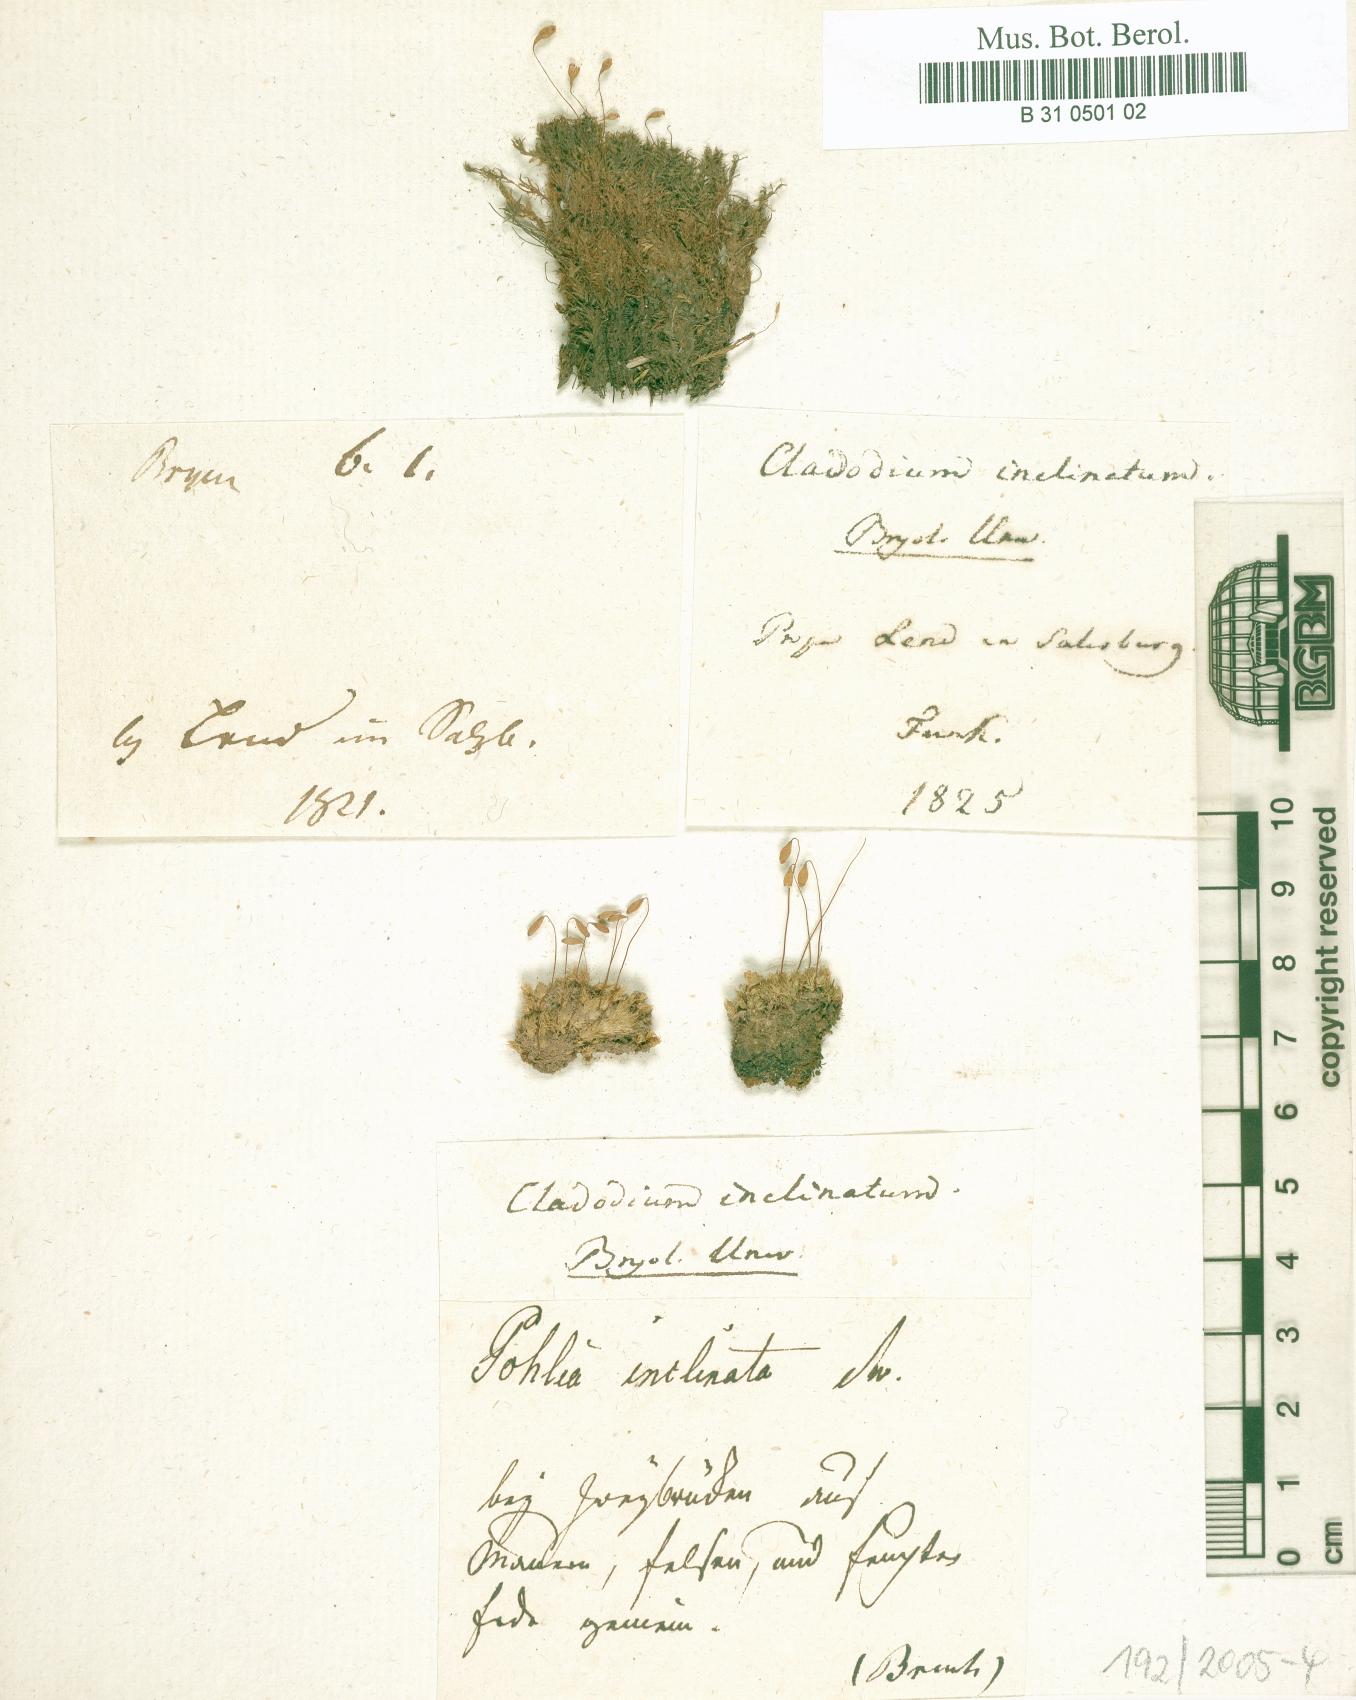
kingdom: Plantae
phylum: Bryophyta
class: Bryopsida
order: Bryales
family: Bryaceae
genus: Ptychostomum
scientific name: Ptychostomum inclinatum
